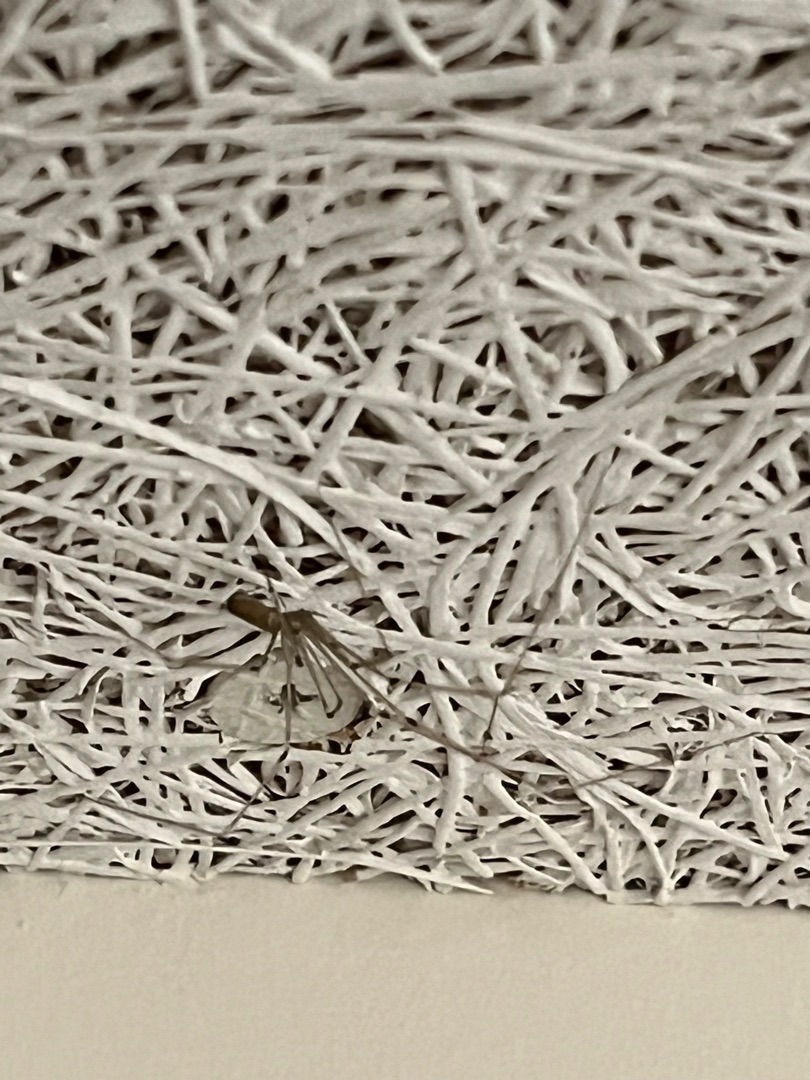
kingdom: Animalia
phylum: Arthropoda
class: Arachnida
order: Araneae
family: Pholcidae
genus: Pholcus
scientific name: Pholcus phalangioides
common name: Mejeredderkop
